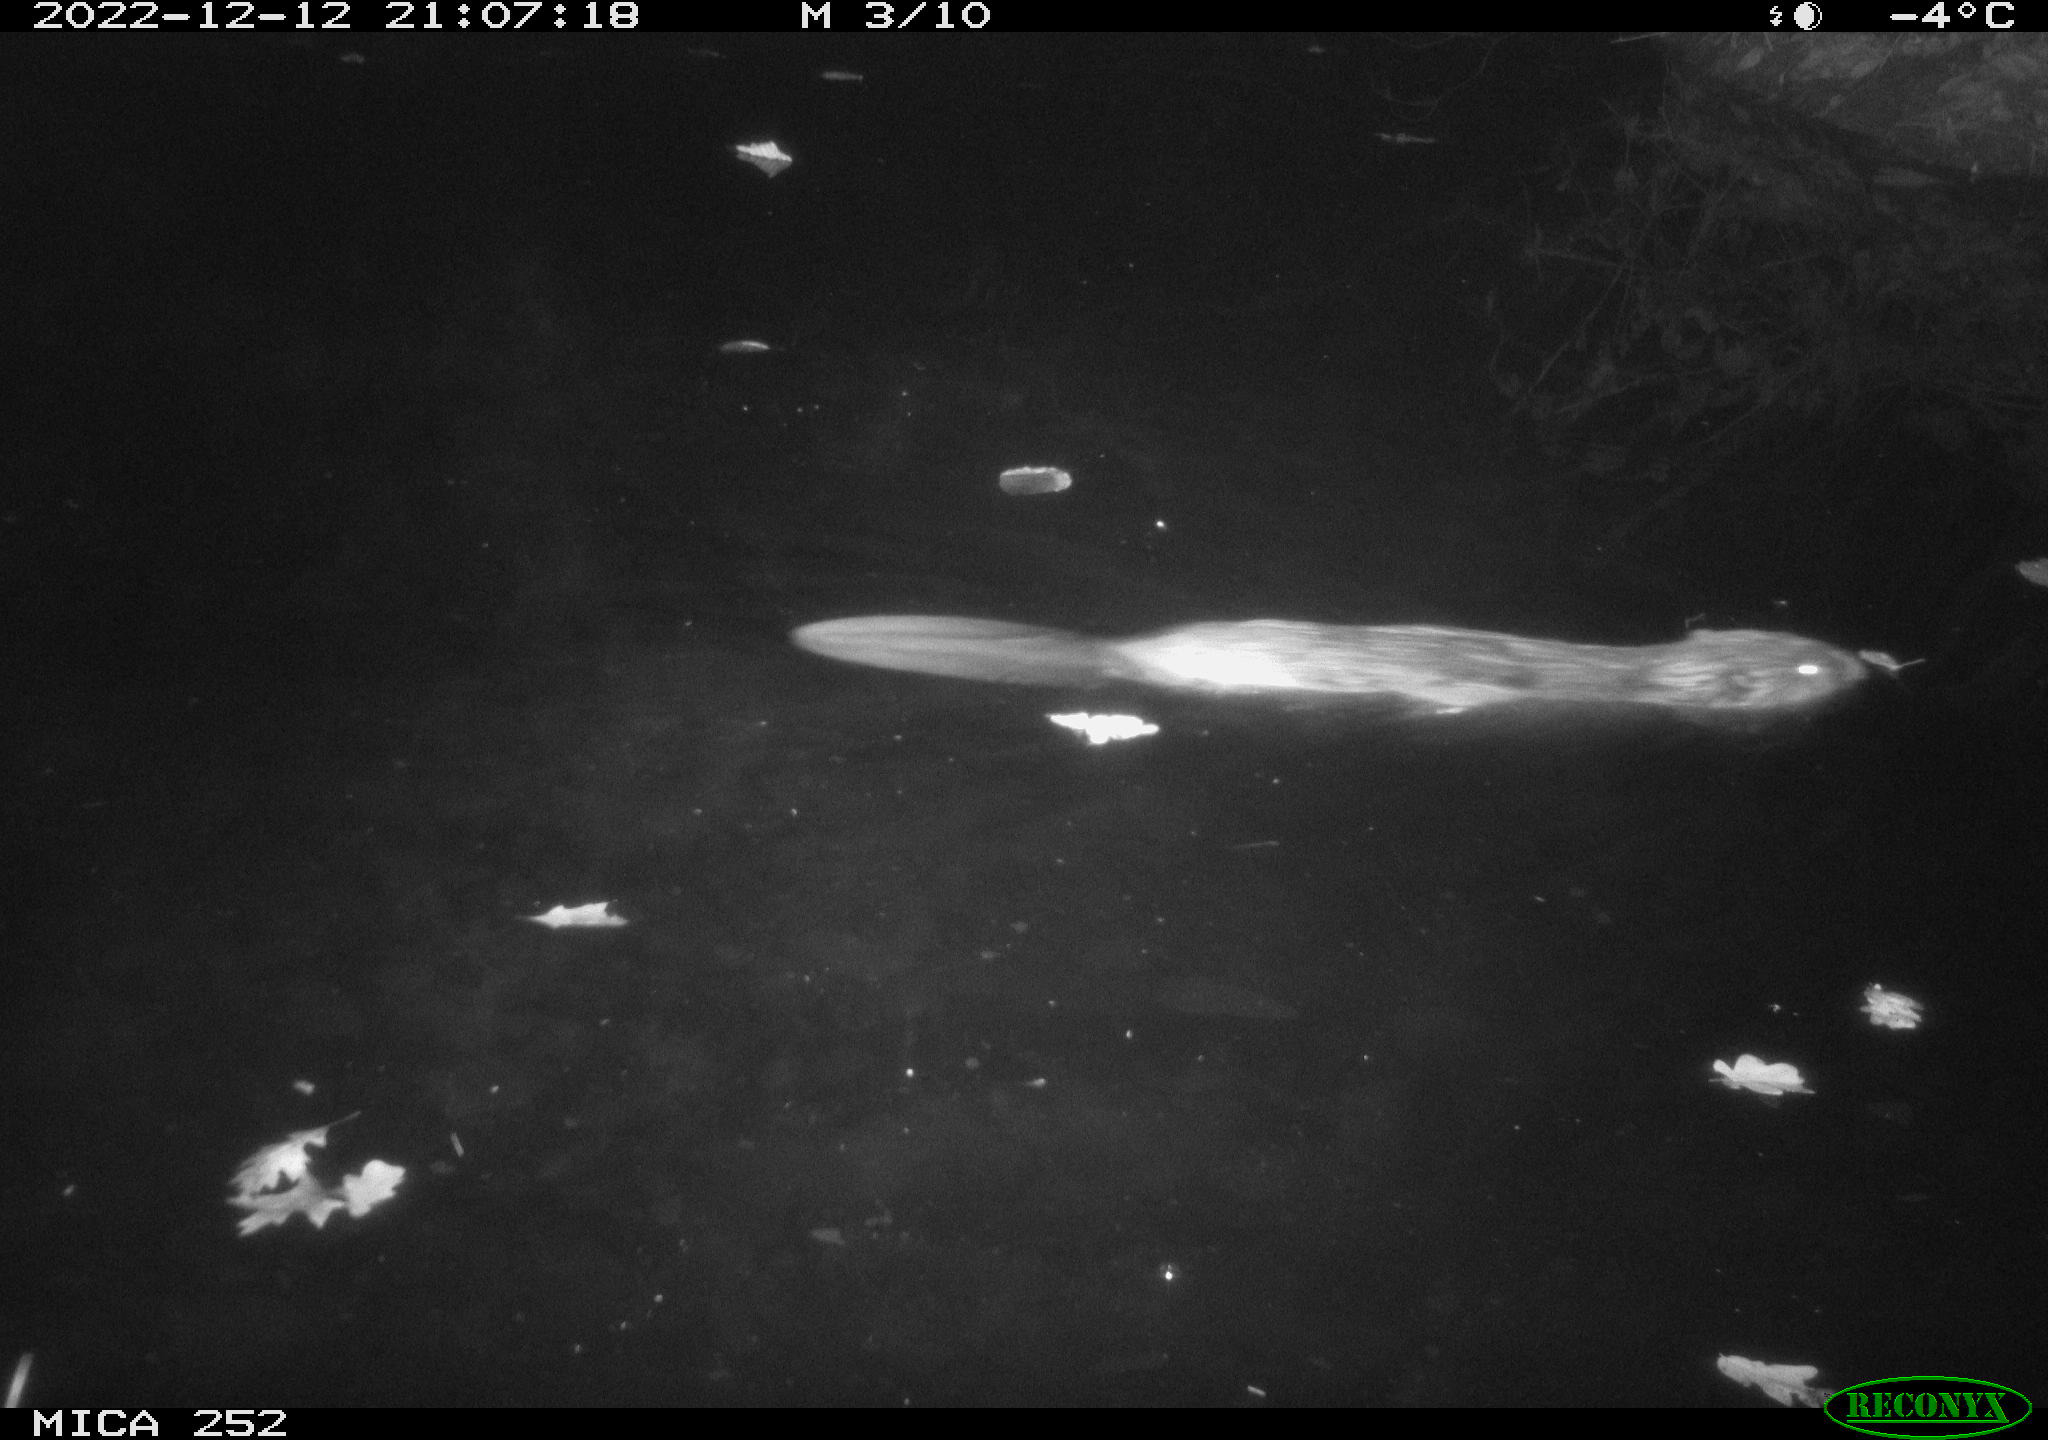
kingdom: Animalia
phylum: Chordata
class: Mammalia
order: Rodentia
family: Castoridae
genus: Castor
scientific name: Castor fiber
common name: Eurasian beaver
